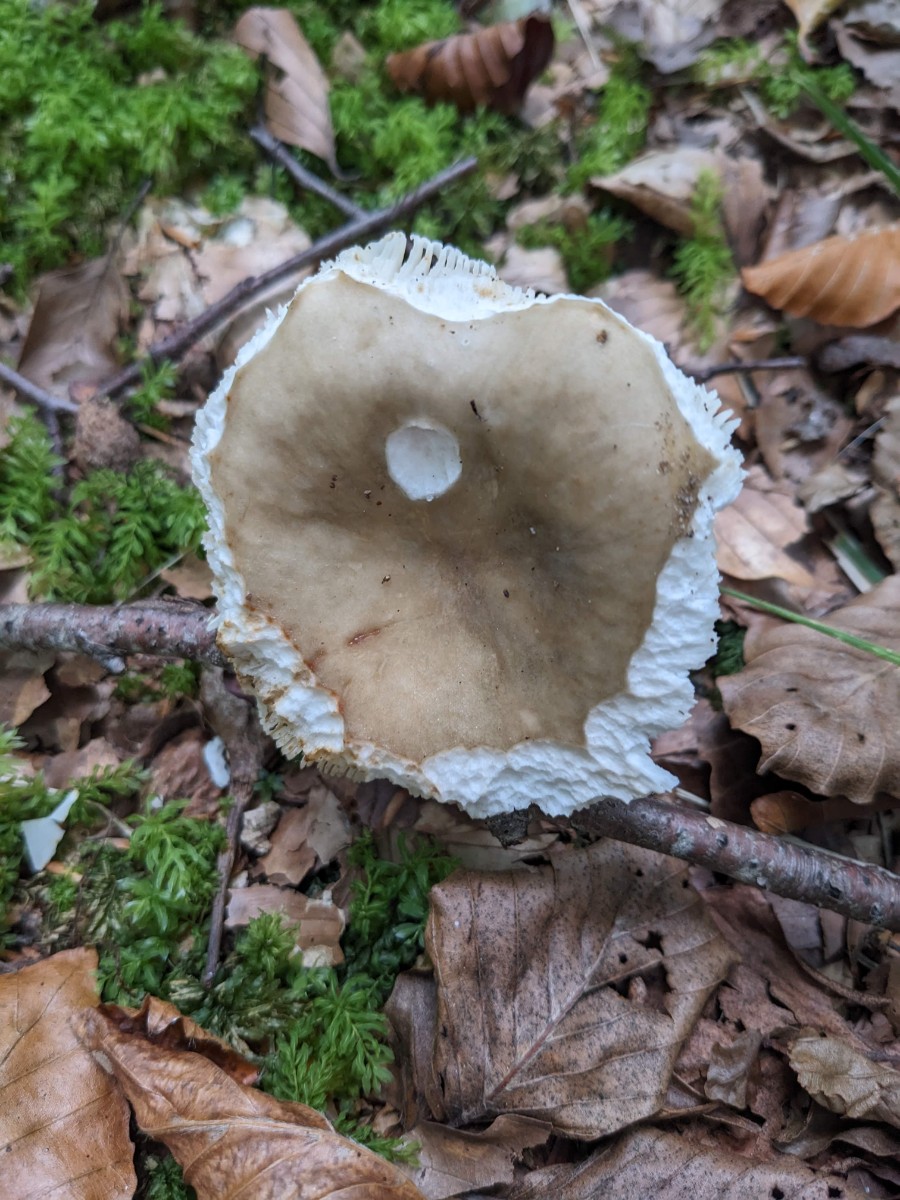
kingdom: Fungi
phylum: Basidiomycota
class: Agaricomycetes
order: Russulales
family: Russulaceae
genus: Russula
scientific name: Russula faustiana
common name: olivengrå skørhat
